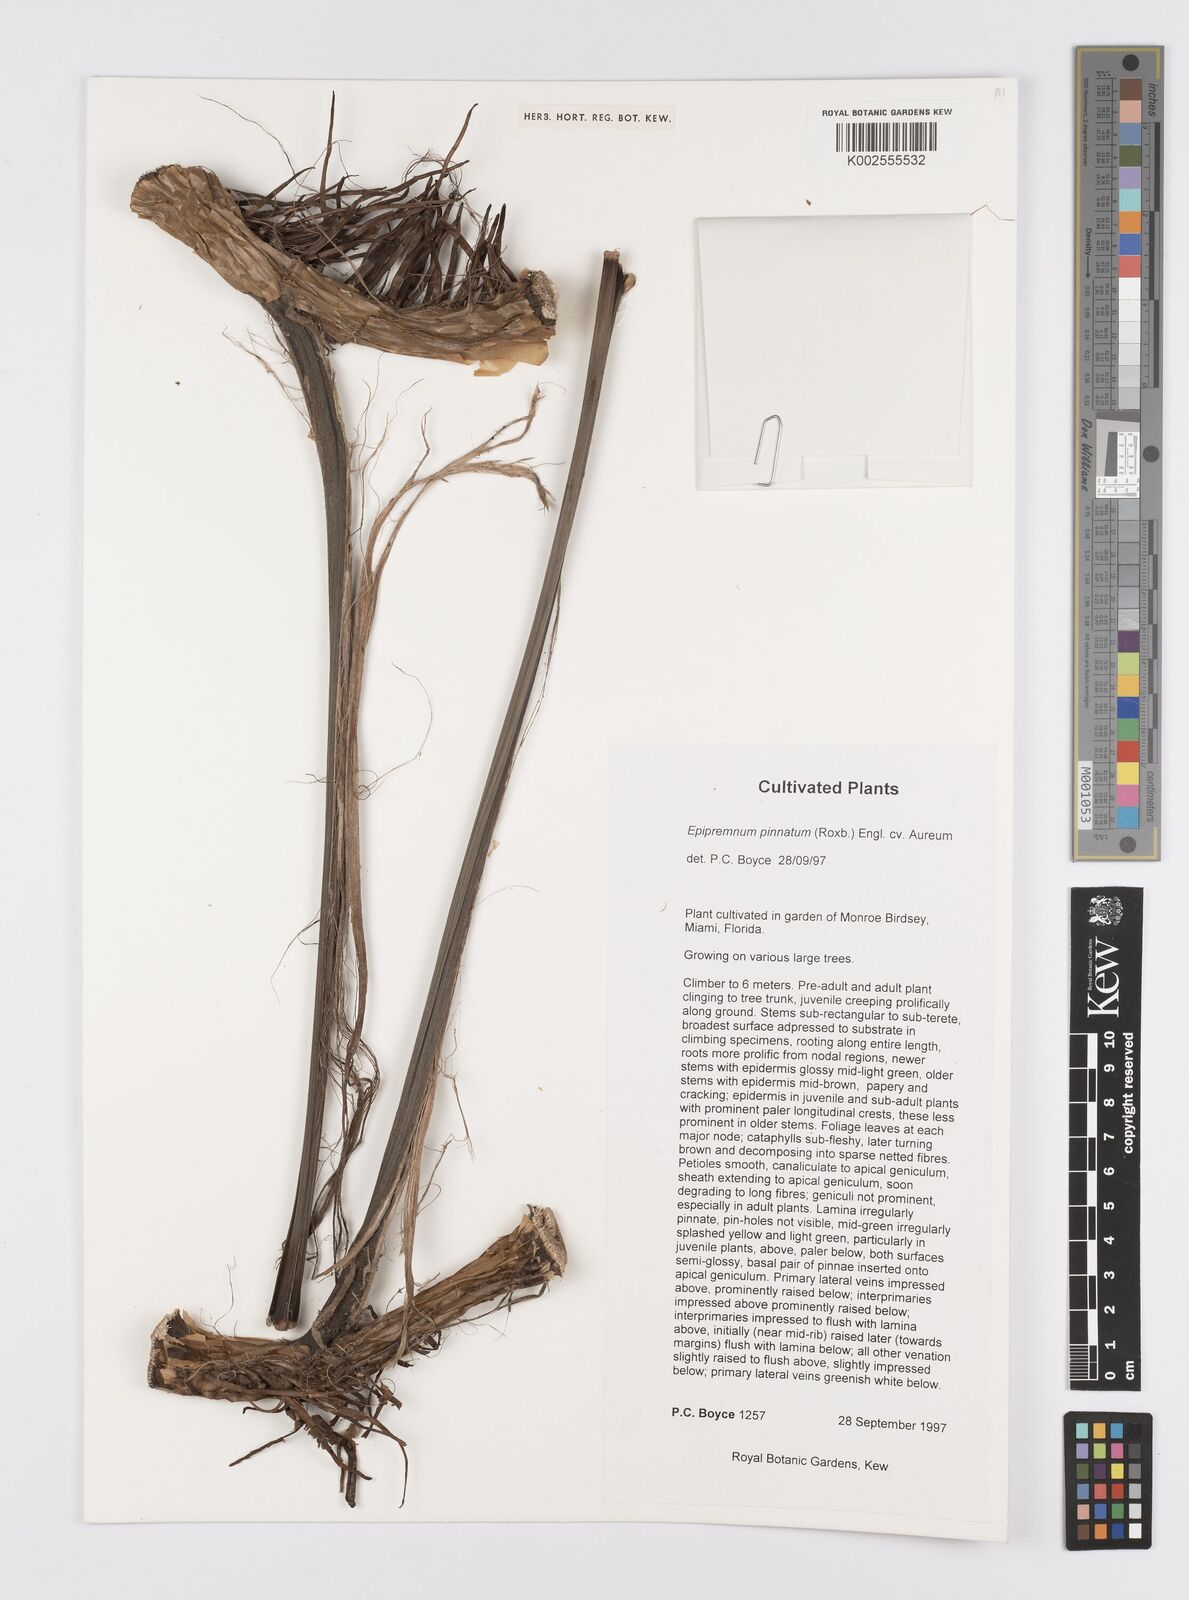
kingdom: Plantae
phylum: Tracheophyta
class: Liliopsida
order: Alismatales
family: Araceae
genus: Epipremnum
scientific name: Epipremnum aureum
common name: Golden hunter's-robe
